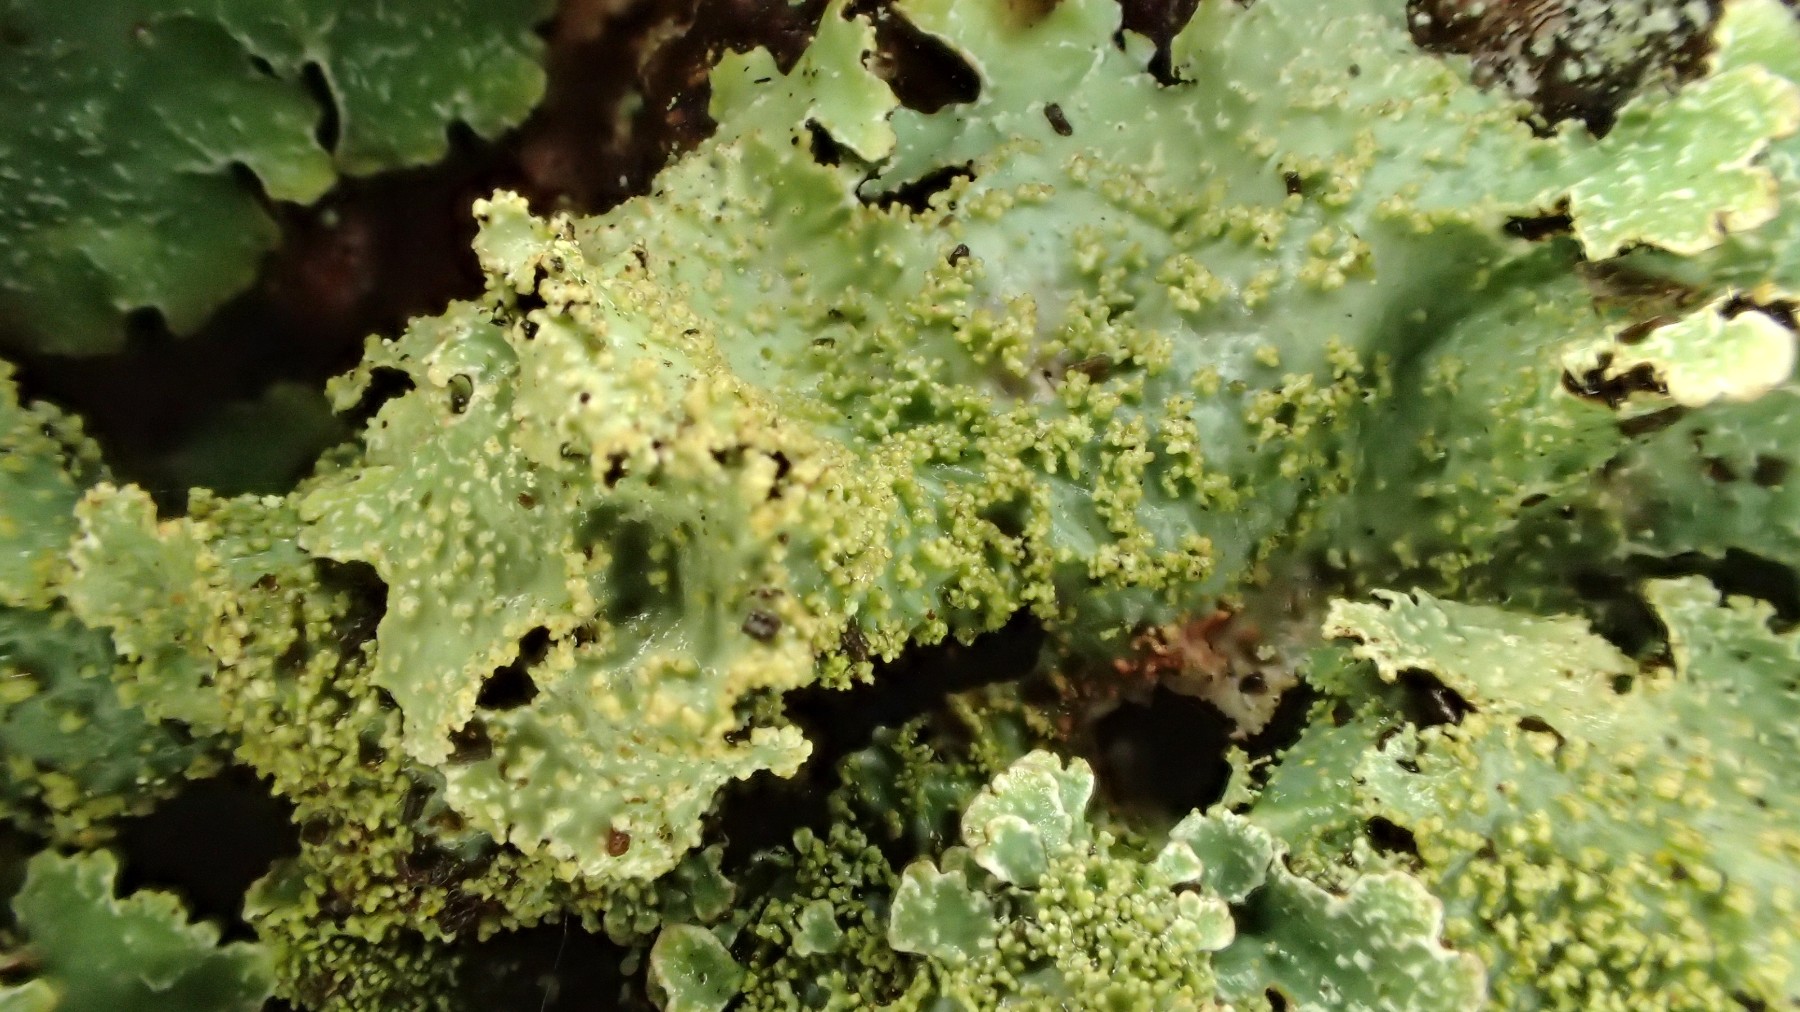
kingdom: Fungi
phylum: Ascomycota
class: Lecanoromycetes
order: Lecanorales
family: Parmeliaceae
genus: Parmelia
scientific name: Parmelia ernstiae
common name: rimstift-skållav
